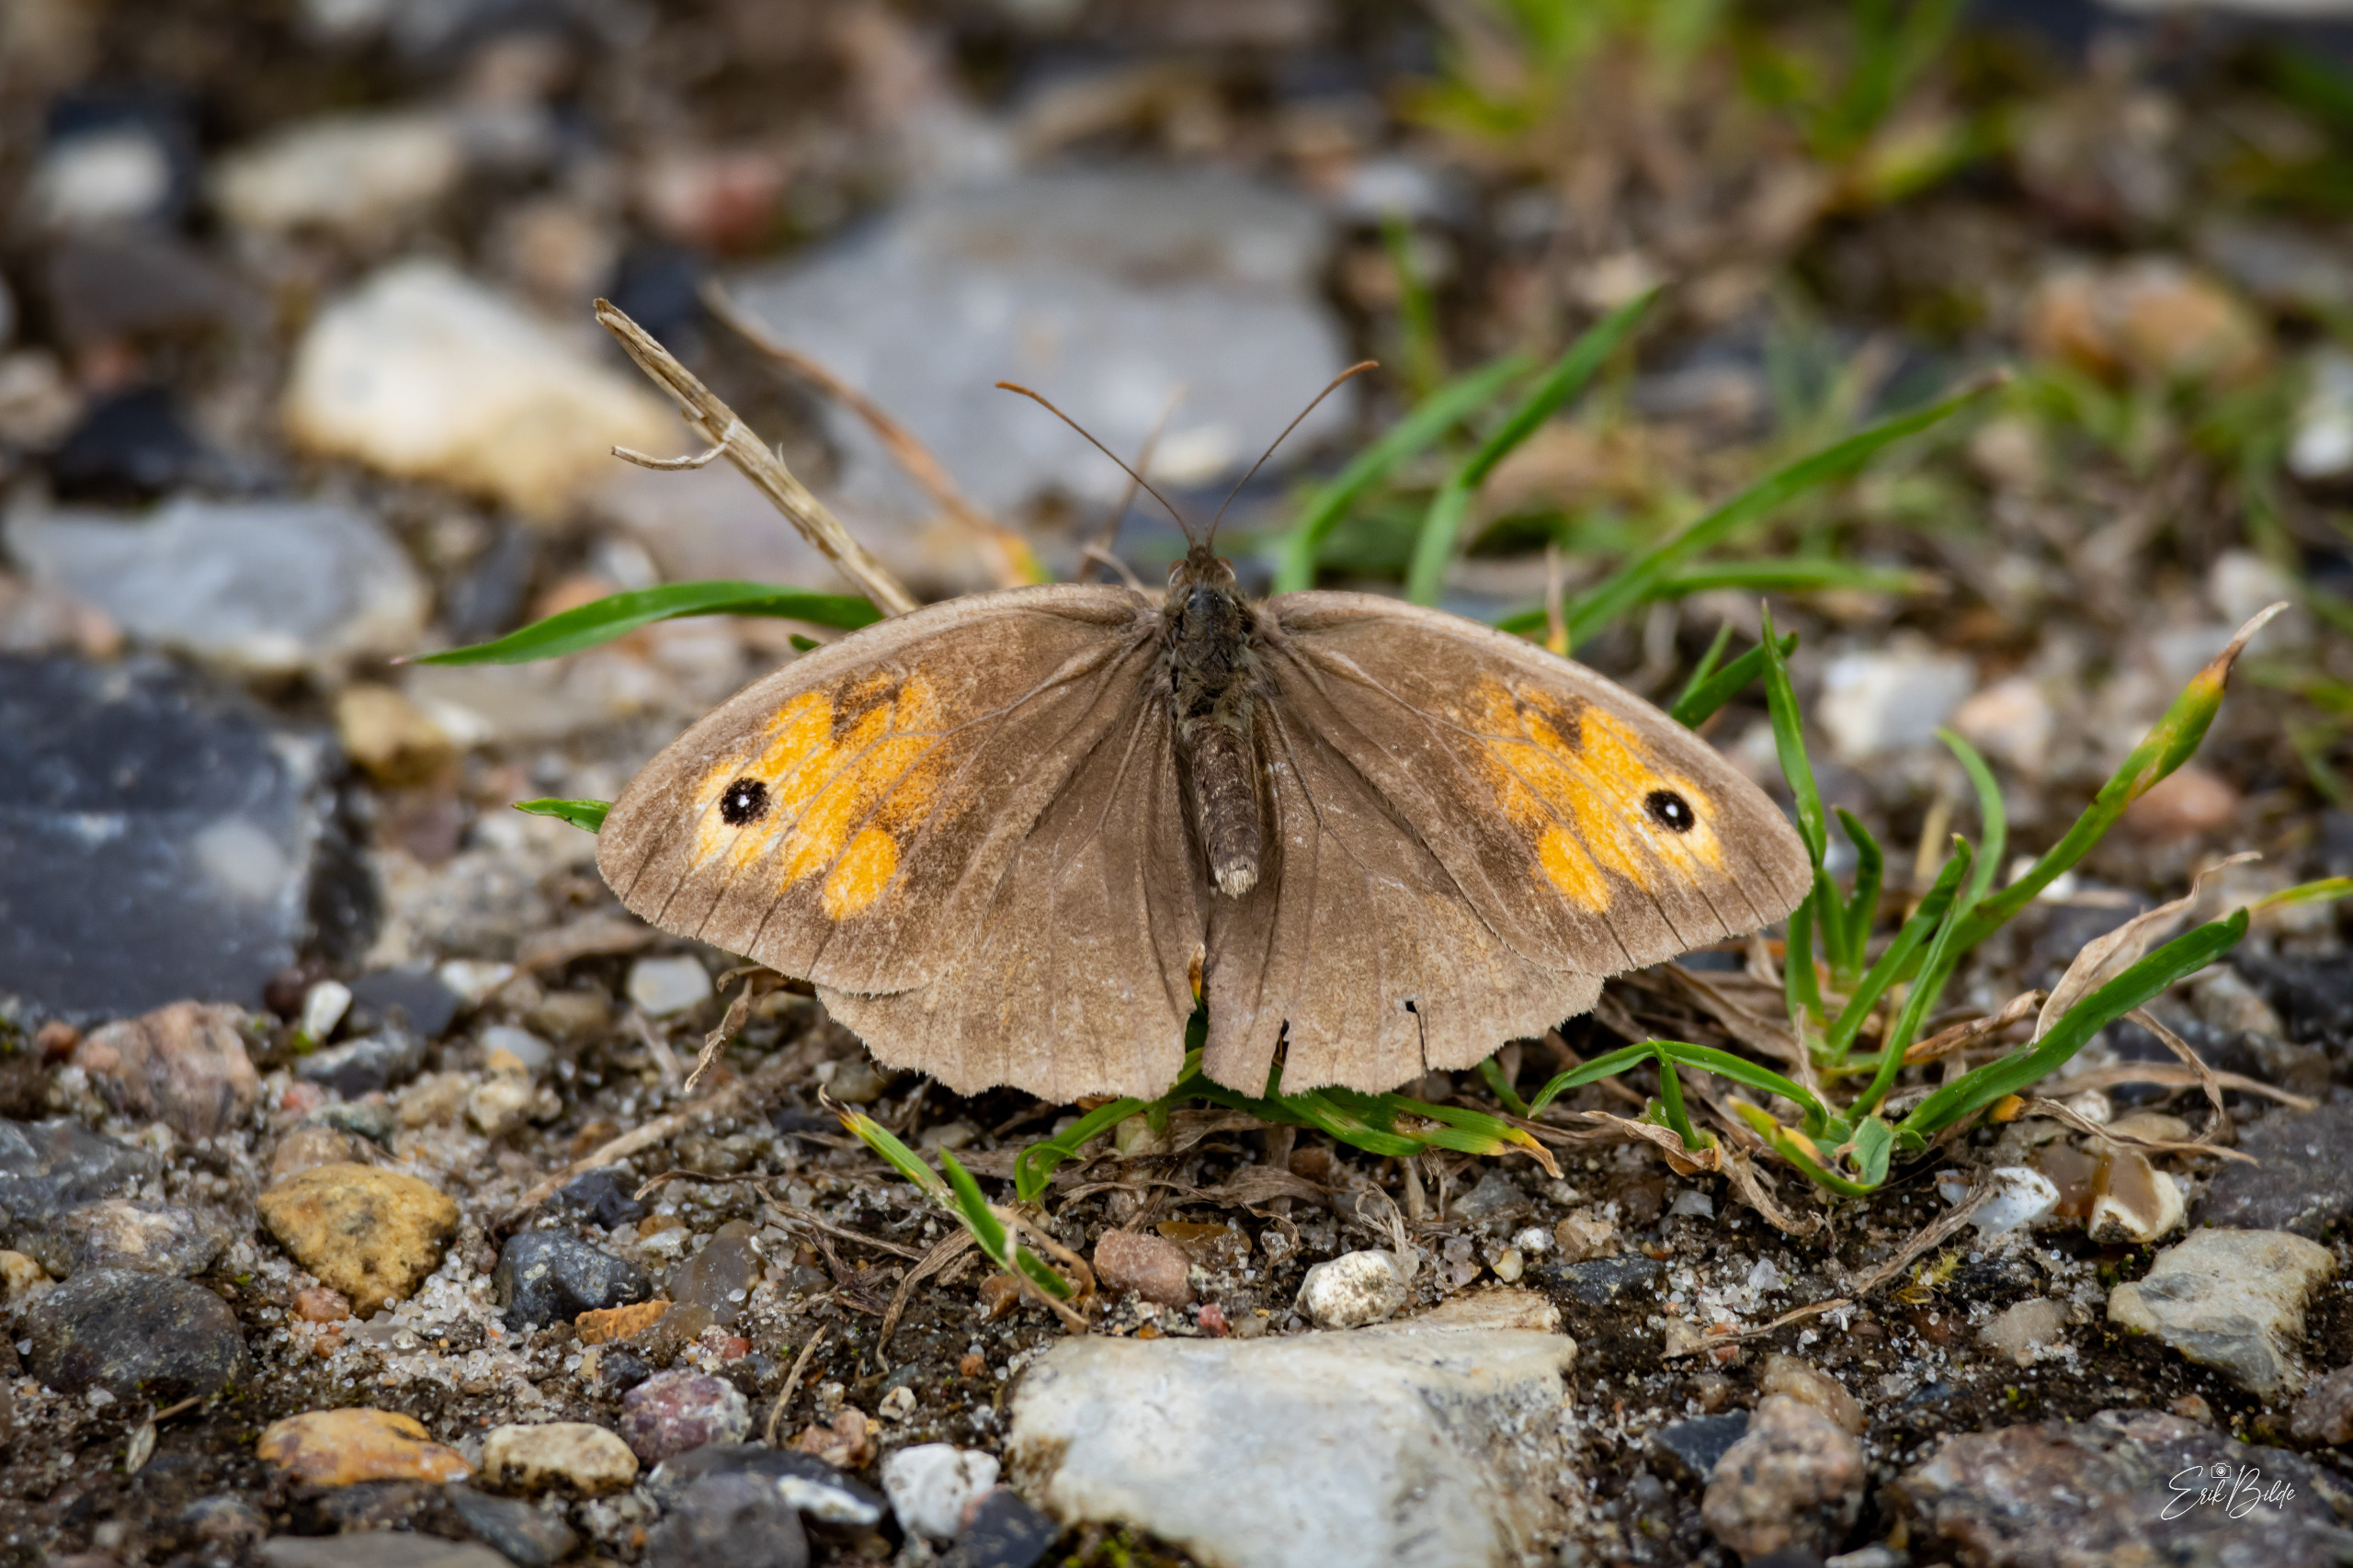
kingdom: Animalia
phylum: Arthropoda
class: Insecta
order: Lepidoptera
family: Nymphalidae
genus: Maniola
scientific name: Maniola jurtina
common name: Græsrandøje
